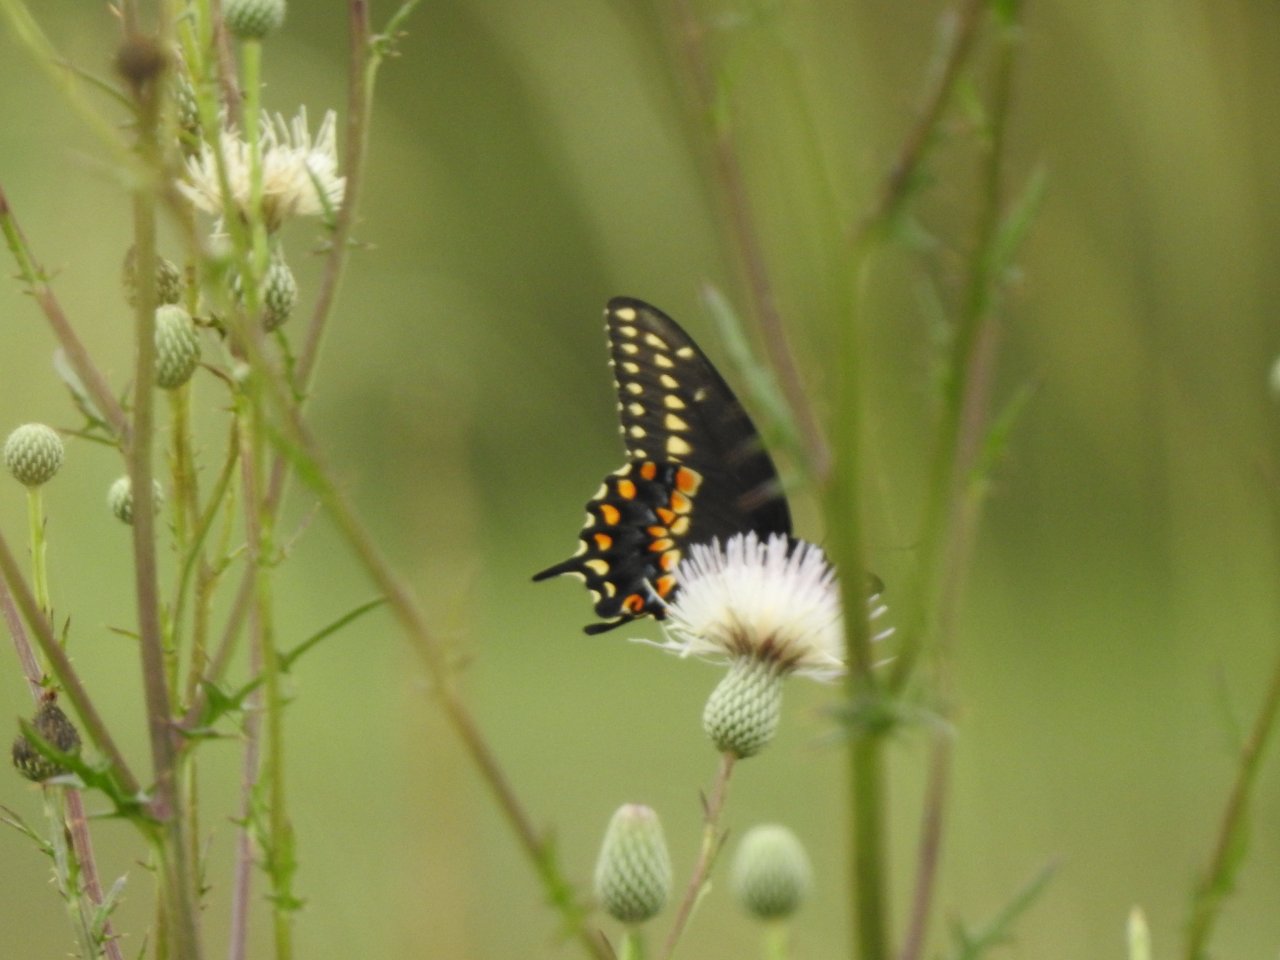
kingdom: Animalia
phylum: Arthropoda
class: Insecta
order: Lepidoptera
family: Papilionidae
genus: Papilio
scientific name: Papilio polyxenes
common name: Black Swallowtail
